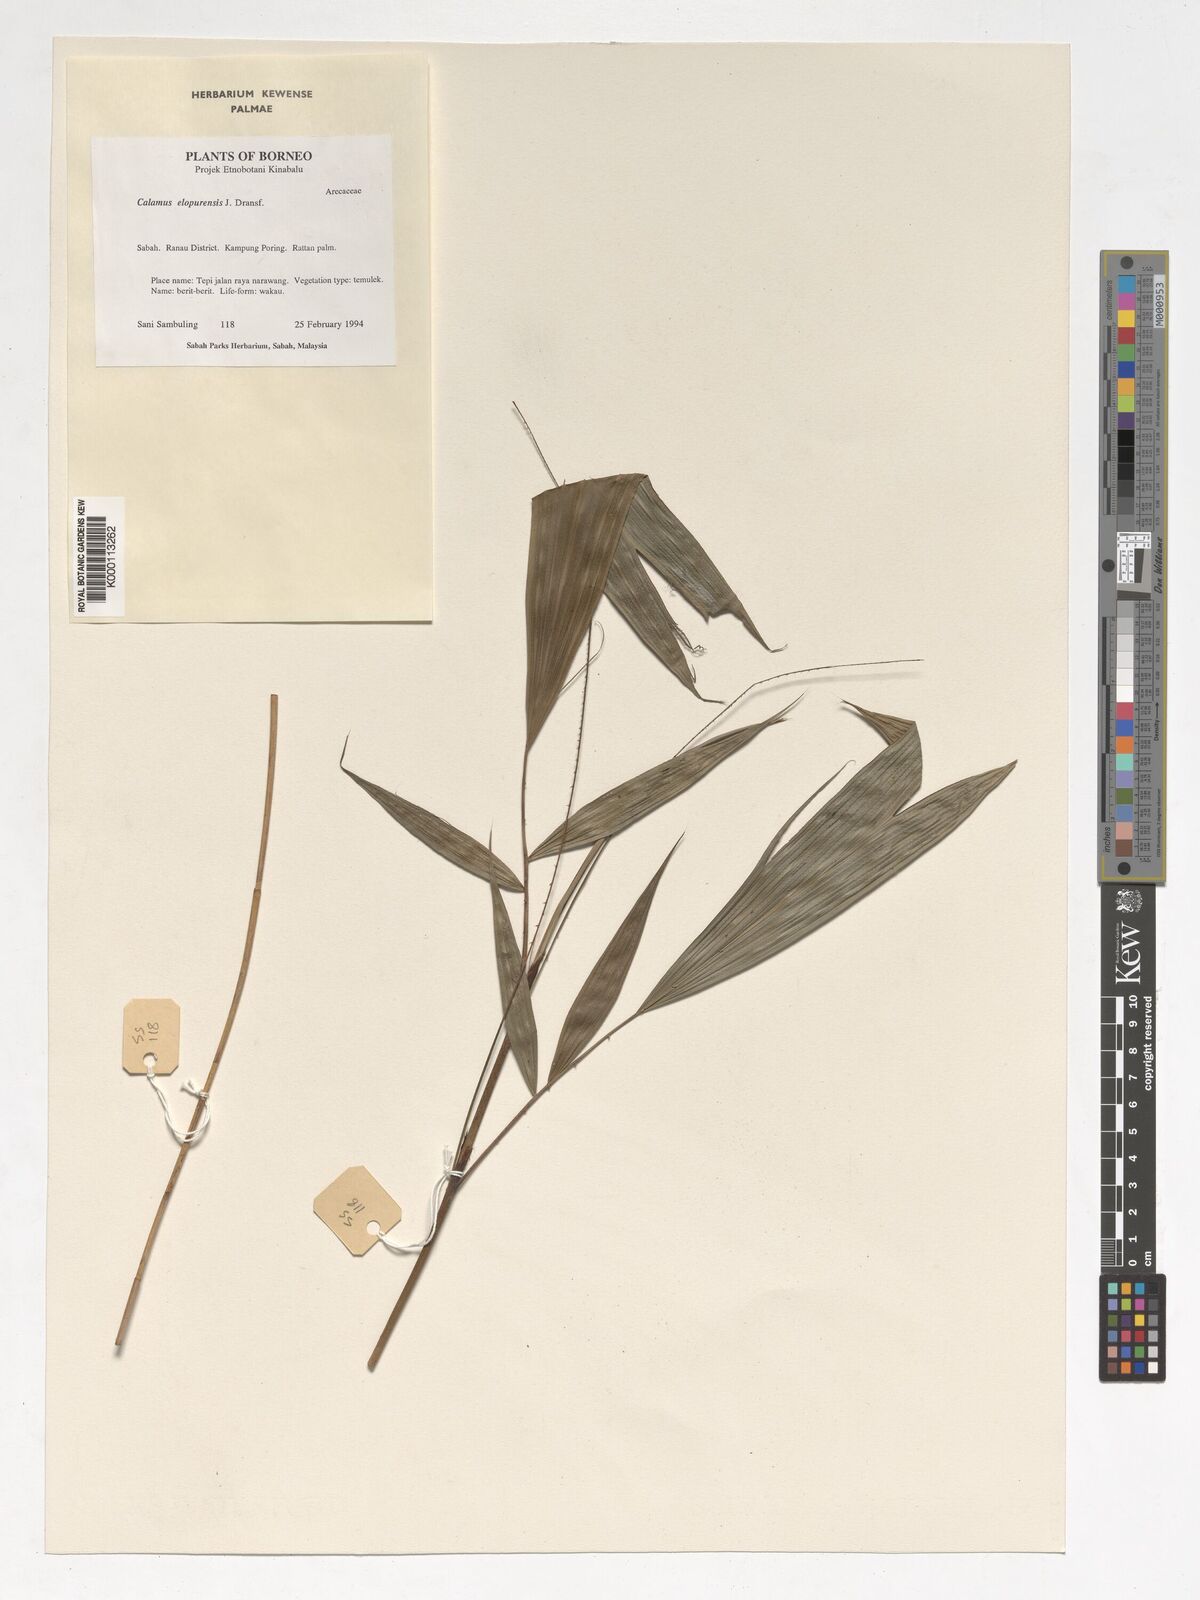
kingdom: Plantae
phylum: Tracheophyta
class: Liliopsida
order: Arecales
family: Arecaceae
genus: Calamus
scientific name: Calamus javensis
